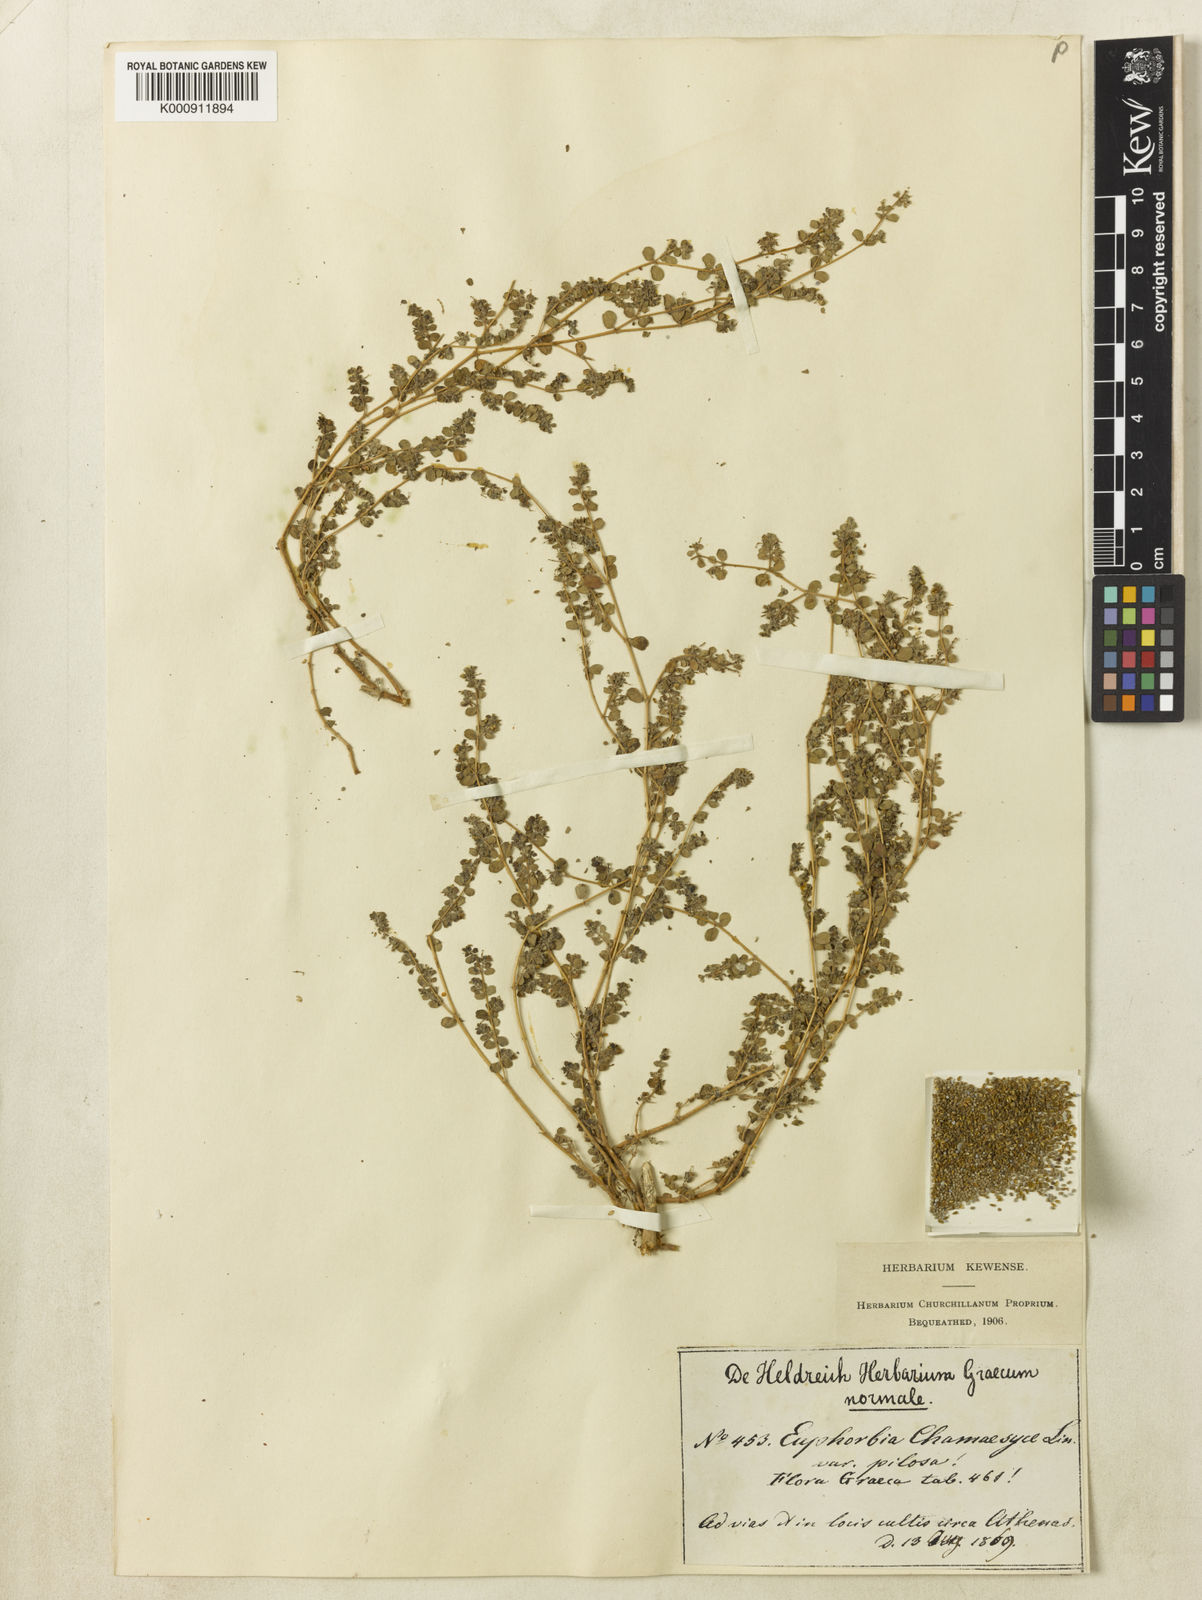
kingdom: Plantae
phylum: Tracheophyta
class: Magnoliopsida
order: Malpighiales
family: Euphorbiaceae
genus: Euphorbia
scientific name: Euphorbia chamaesyce
